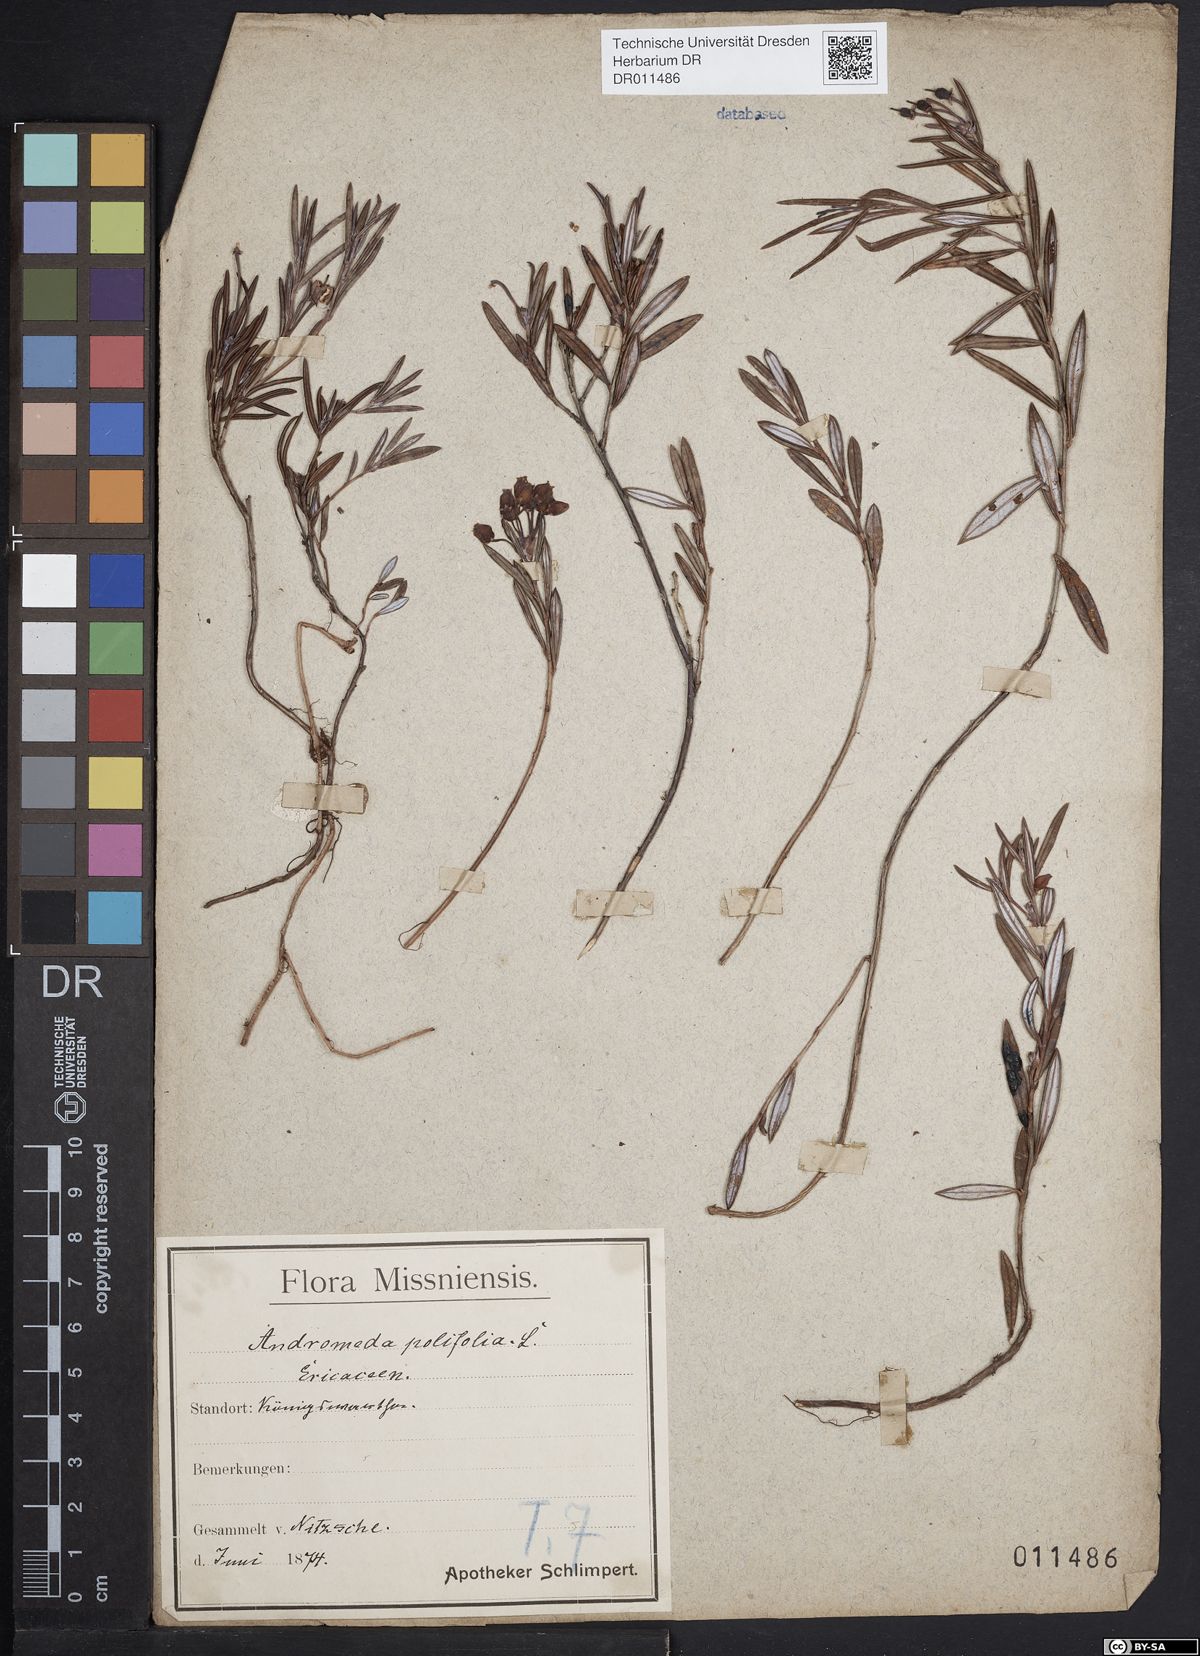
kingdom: Plantae
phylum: Tracheophyta
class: Magnoliopsida
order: Ericales
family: Ericaceae
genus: Andromeda
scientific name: Andromeda polifolia
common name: Bog-rosemary
